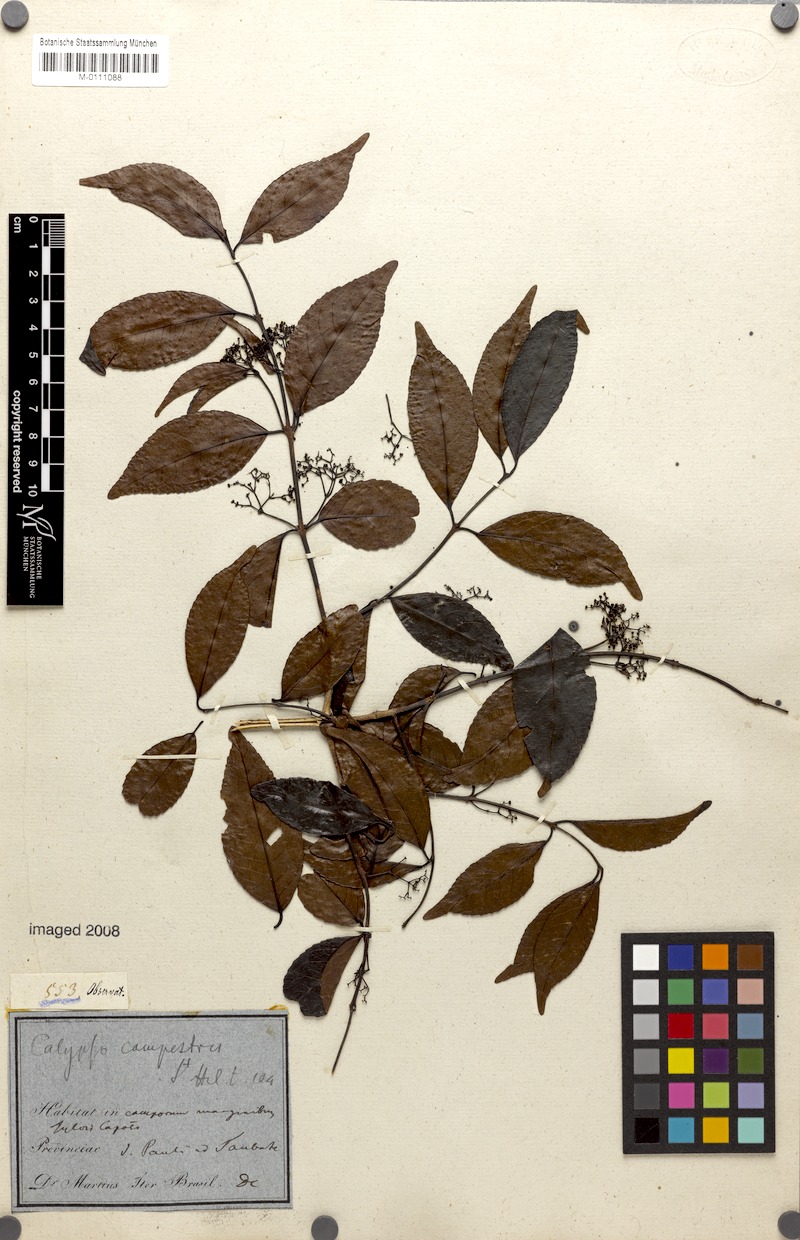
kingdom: Plantae
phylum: Tracheophyta
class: Magnoliopsida
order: Celastrales
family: Celastraceae
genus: Elachyptera
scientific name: Elachyptera festiva
